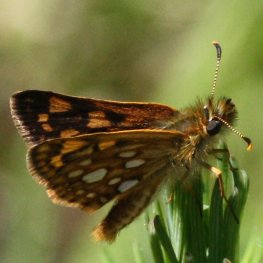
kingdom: Animalia
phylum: Arthropoda
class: Insecta
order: Lepidoptera
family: Hesperiidae
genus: Carterocephalus
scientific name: Carterocephalus palaemon
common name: Chequered Skipper
